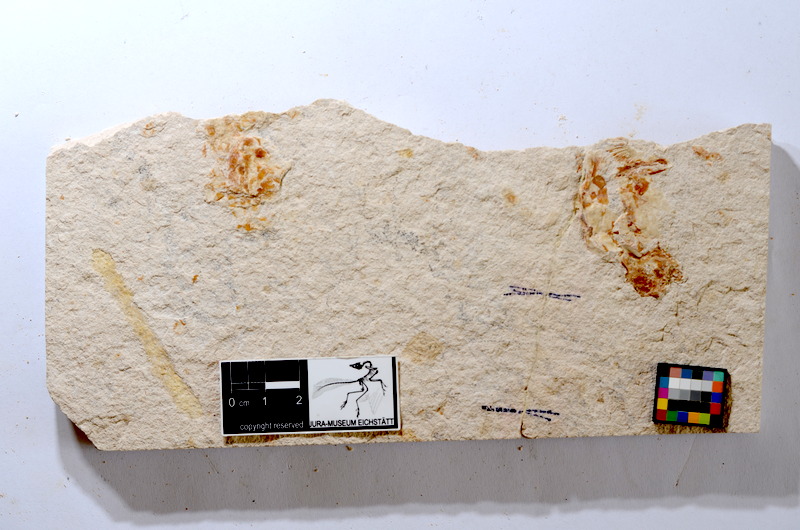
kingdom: Animalia
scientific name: Animalia
